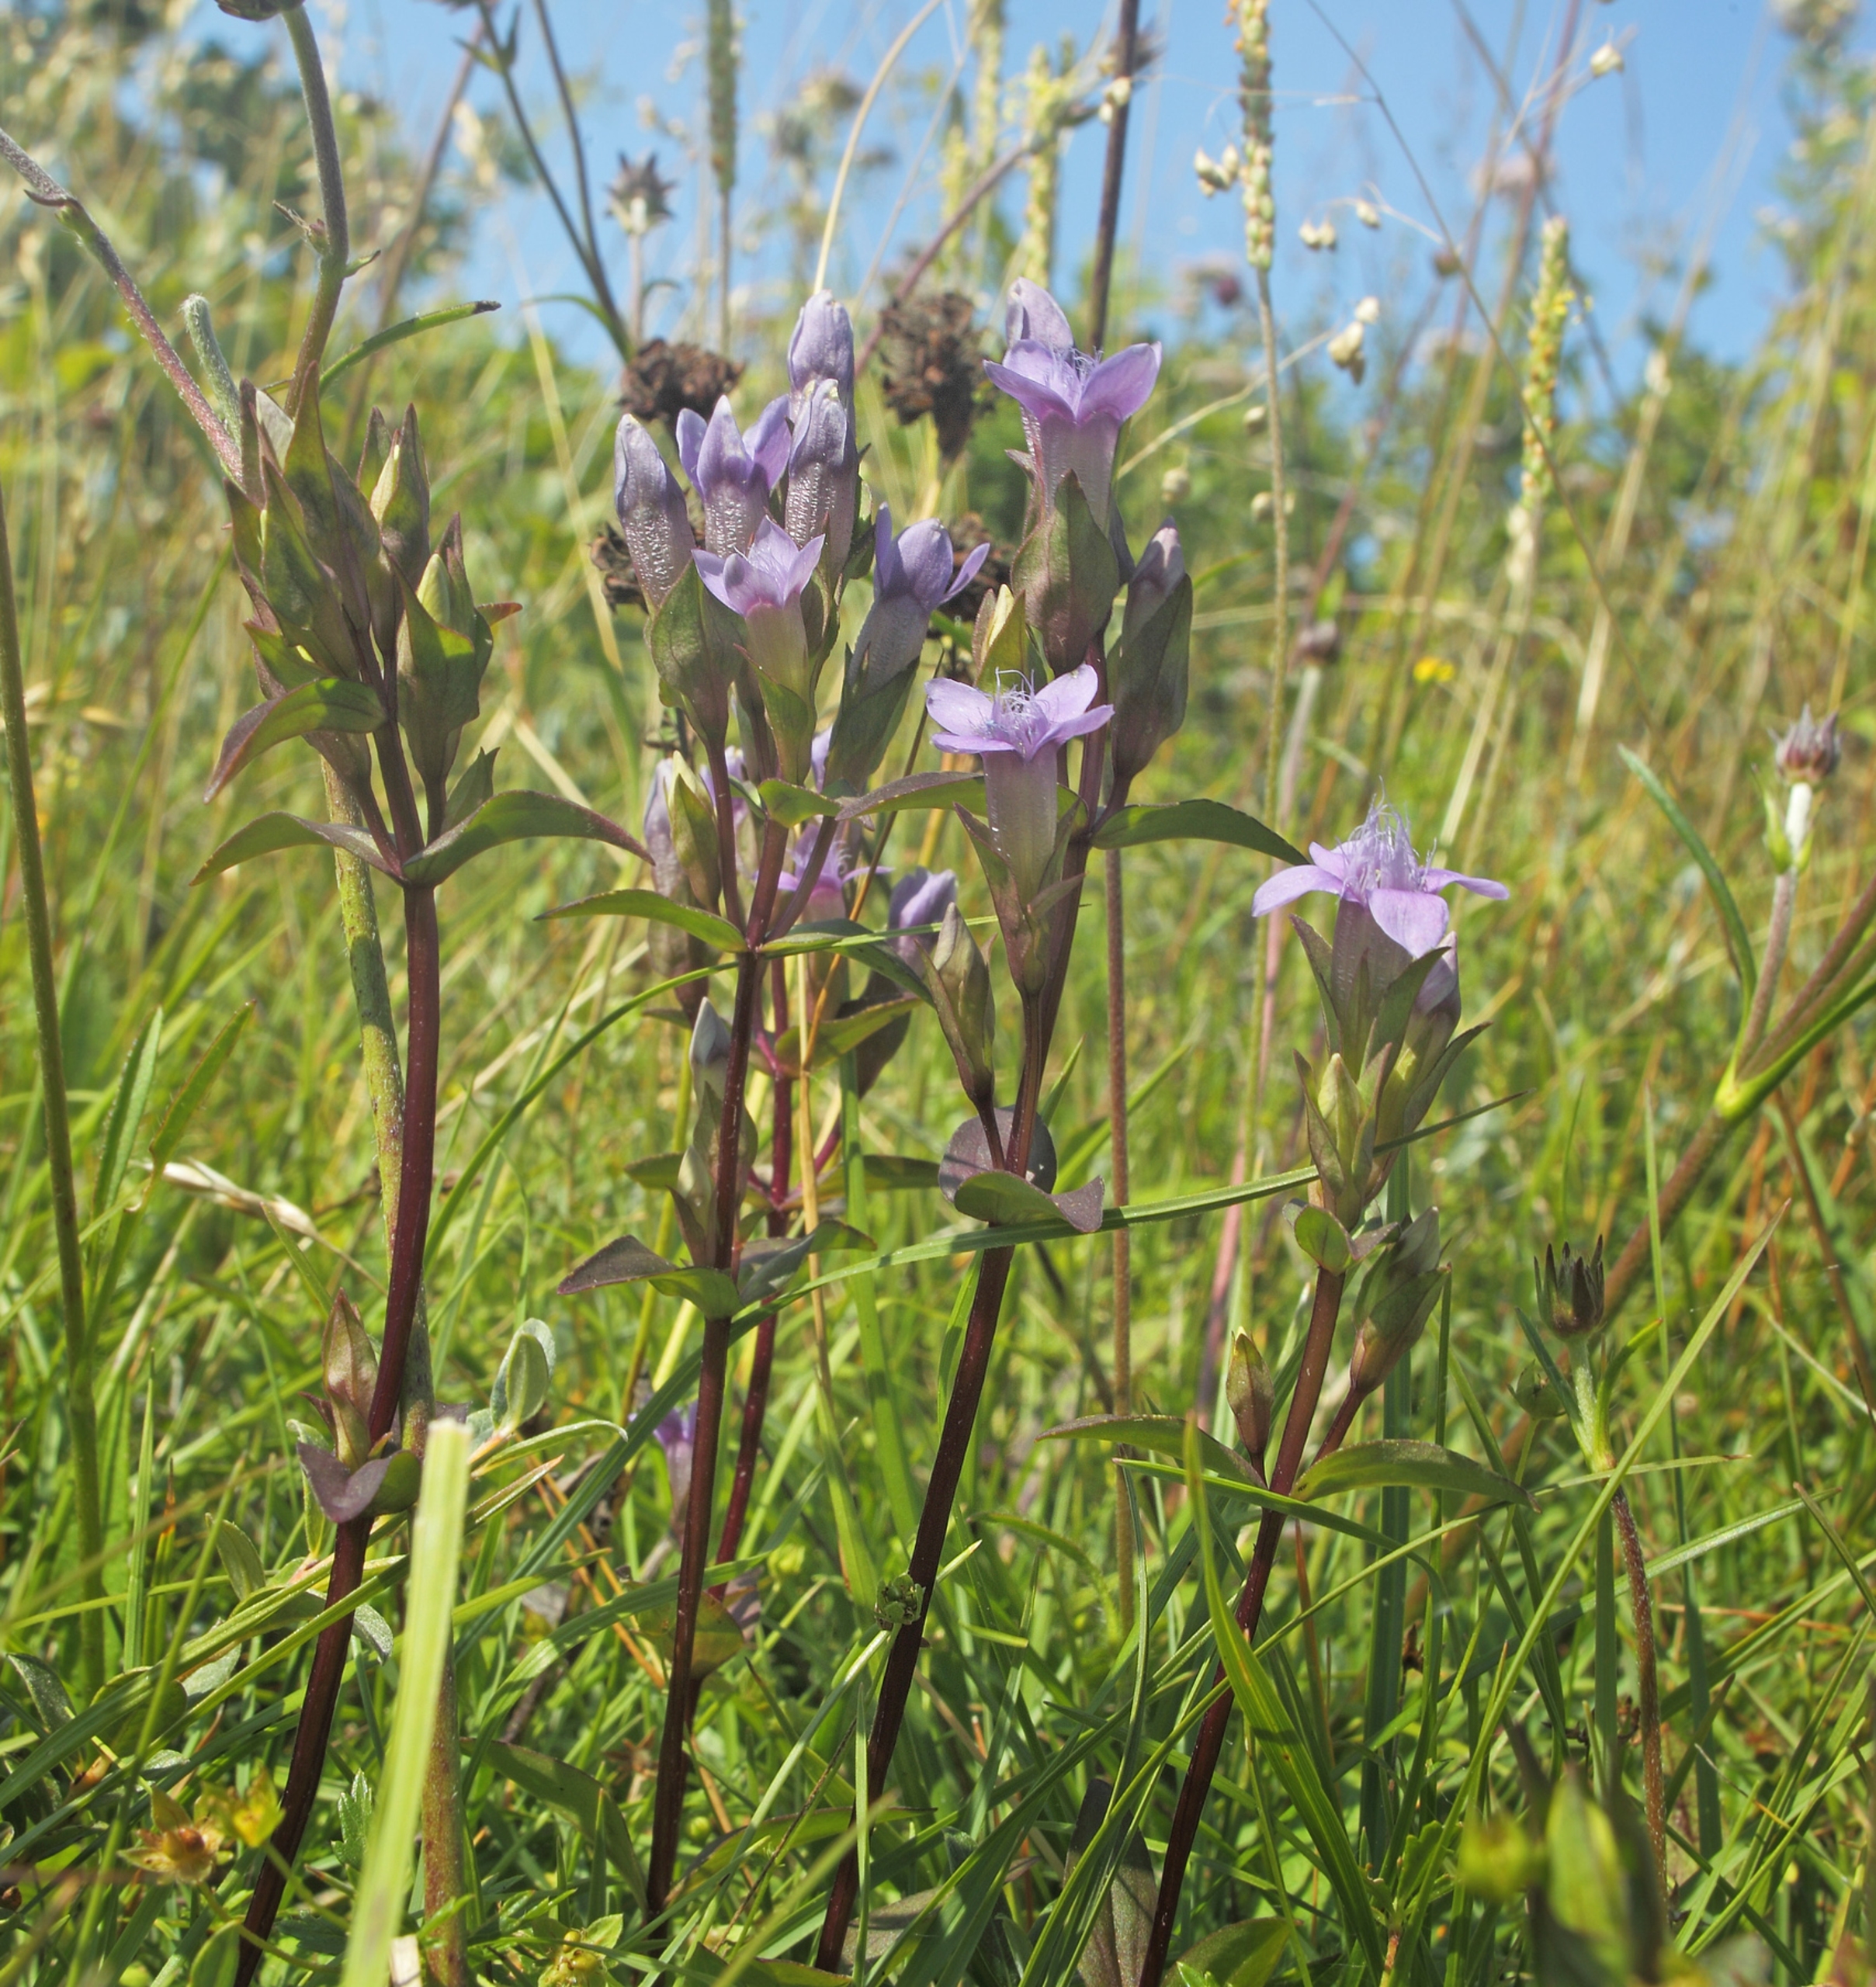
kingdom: Plantae
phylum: Tracheophyta
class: Magnoliopsida
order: Gentianales
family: Gentianaceae
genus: Gentianella
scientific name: Gentianella campestris
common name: Baltisk ensian
